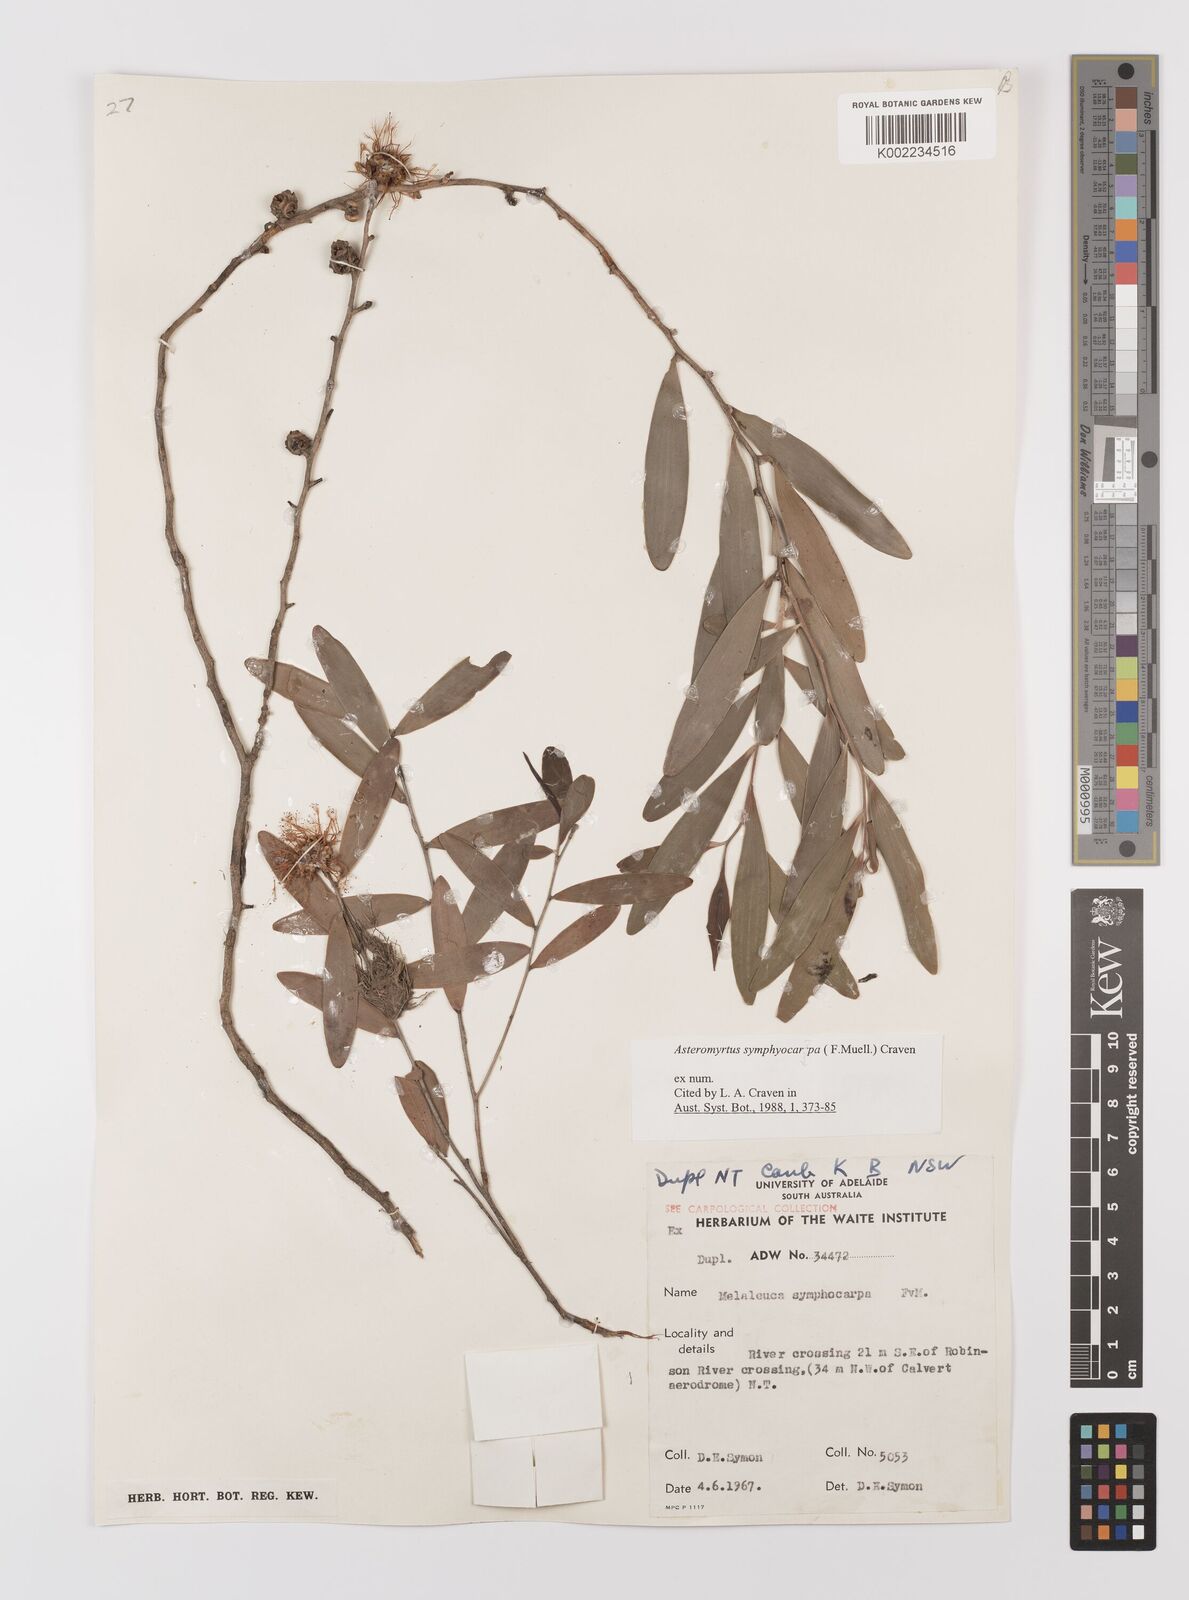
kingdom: Plantae
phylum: Tracheophyta
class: Magnoliopsida
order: Myrtales
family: Myrtaceae
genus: Asteromyrtus
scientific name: Asteromyrtus symphyocarpa
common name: Liniment-tree
